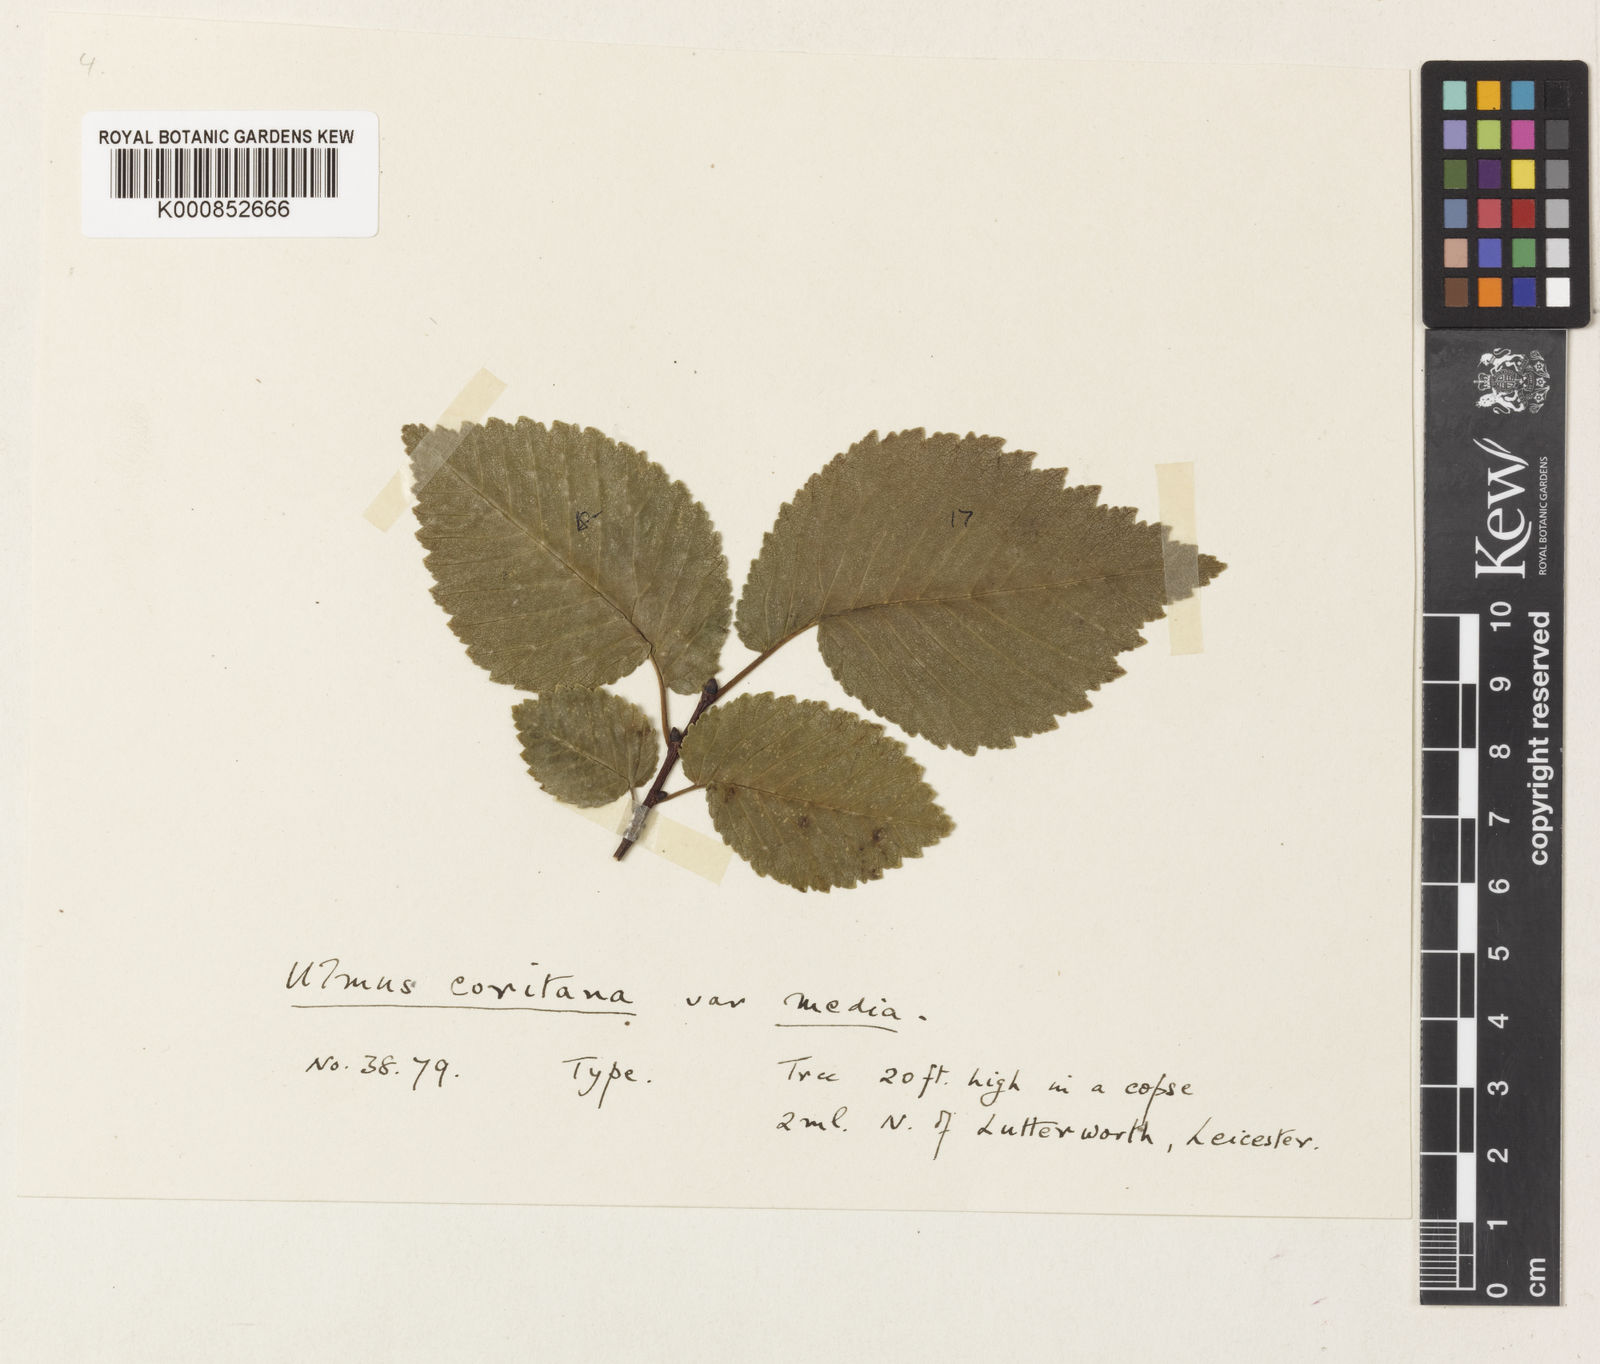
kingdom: Plantae
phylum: Tracheophyta
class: Magnoliopsida
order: Rosales
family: Ulmaceae
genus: Ulmus
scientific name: Ulmus minor
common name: Small-leaved elm
